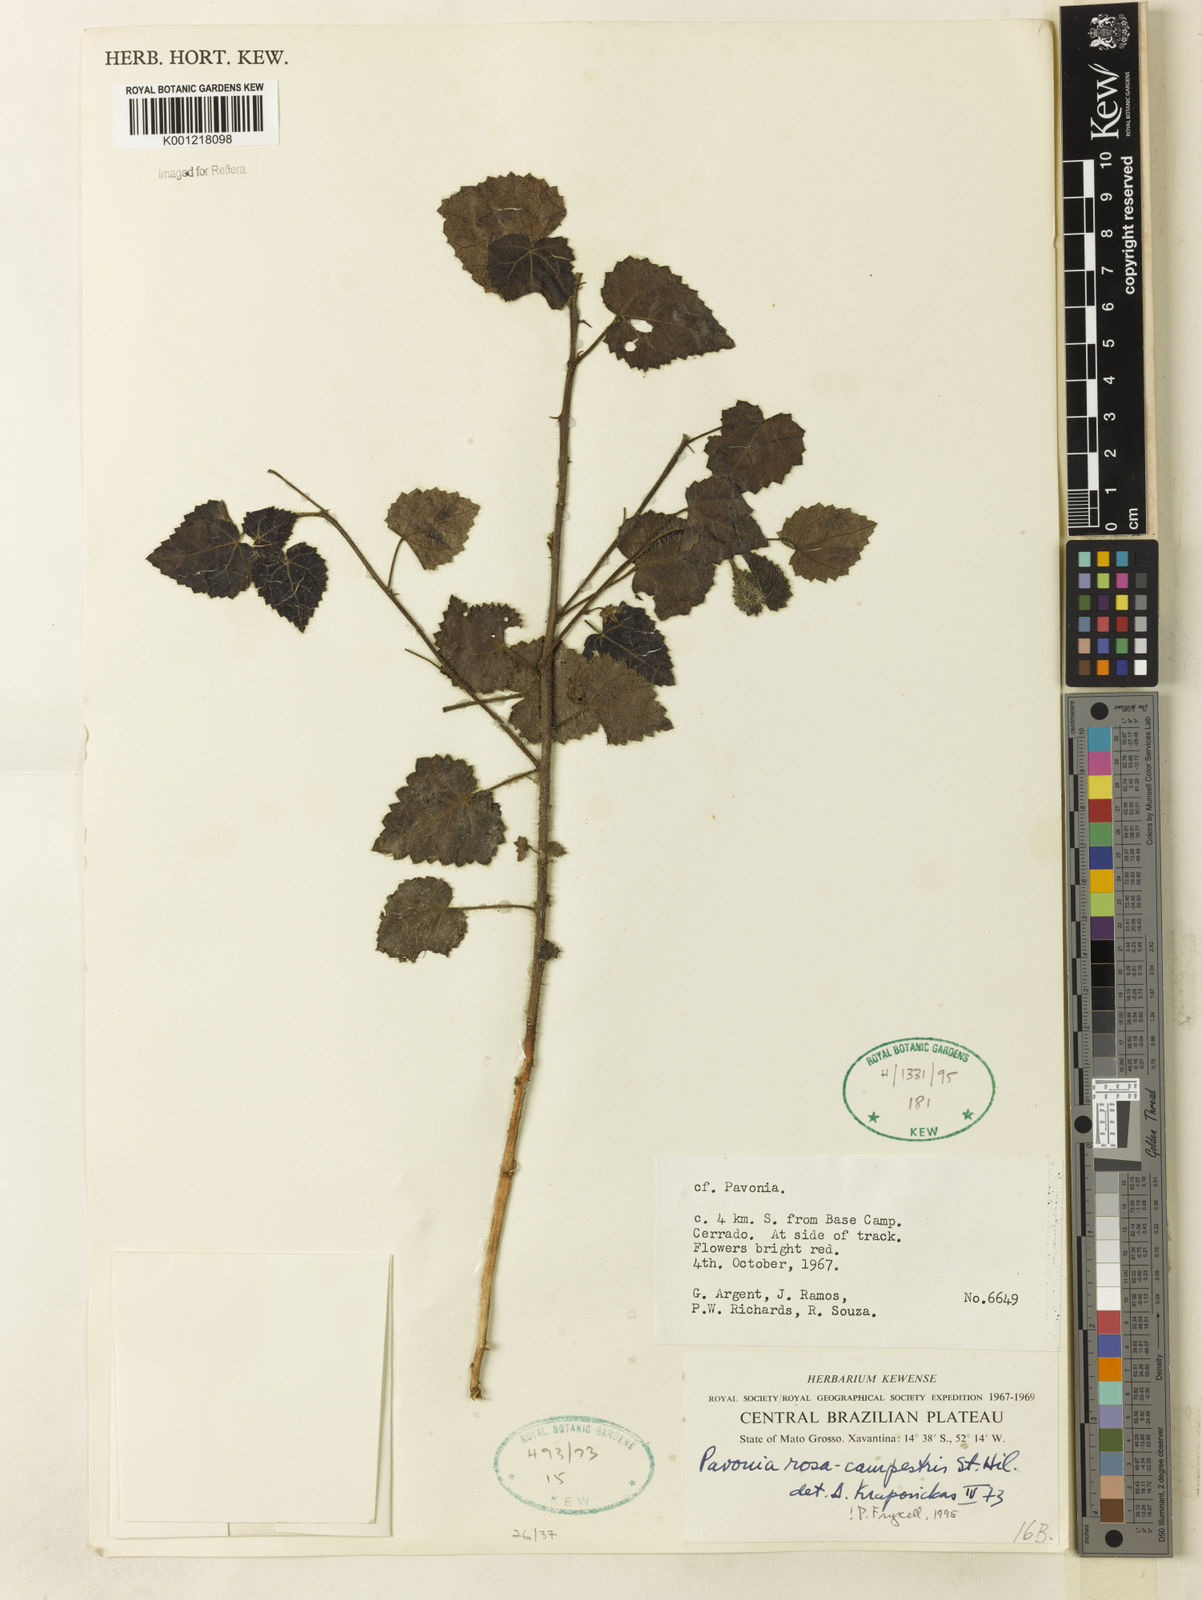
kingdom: Plantae
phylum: Tracheophyta
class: Magnoliopsida
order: Malvales
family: Malvaceae
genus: Pavonia
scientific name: Pavonia rosa-campestris
